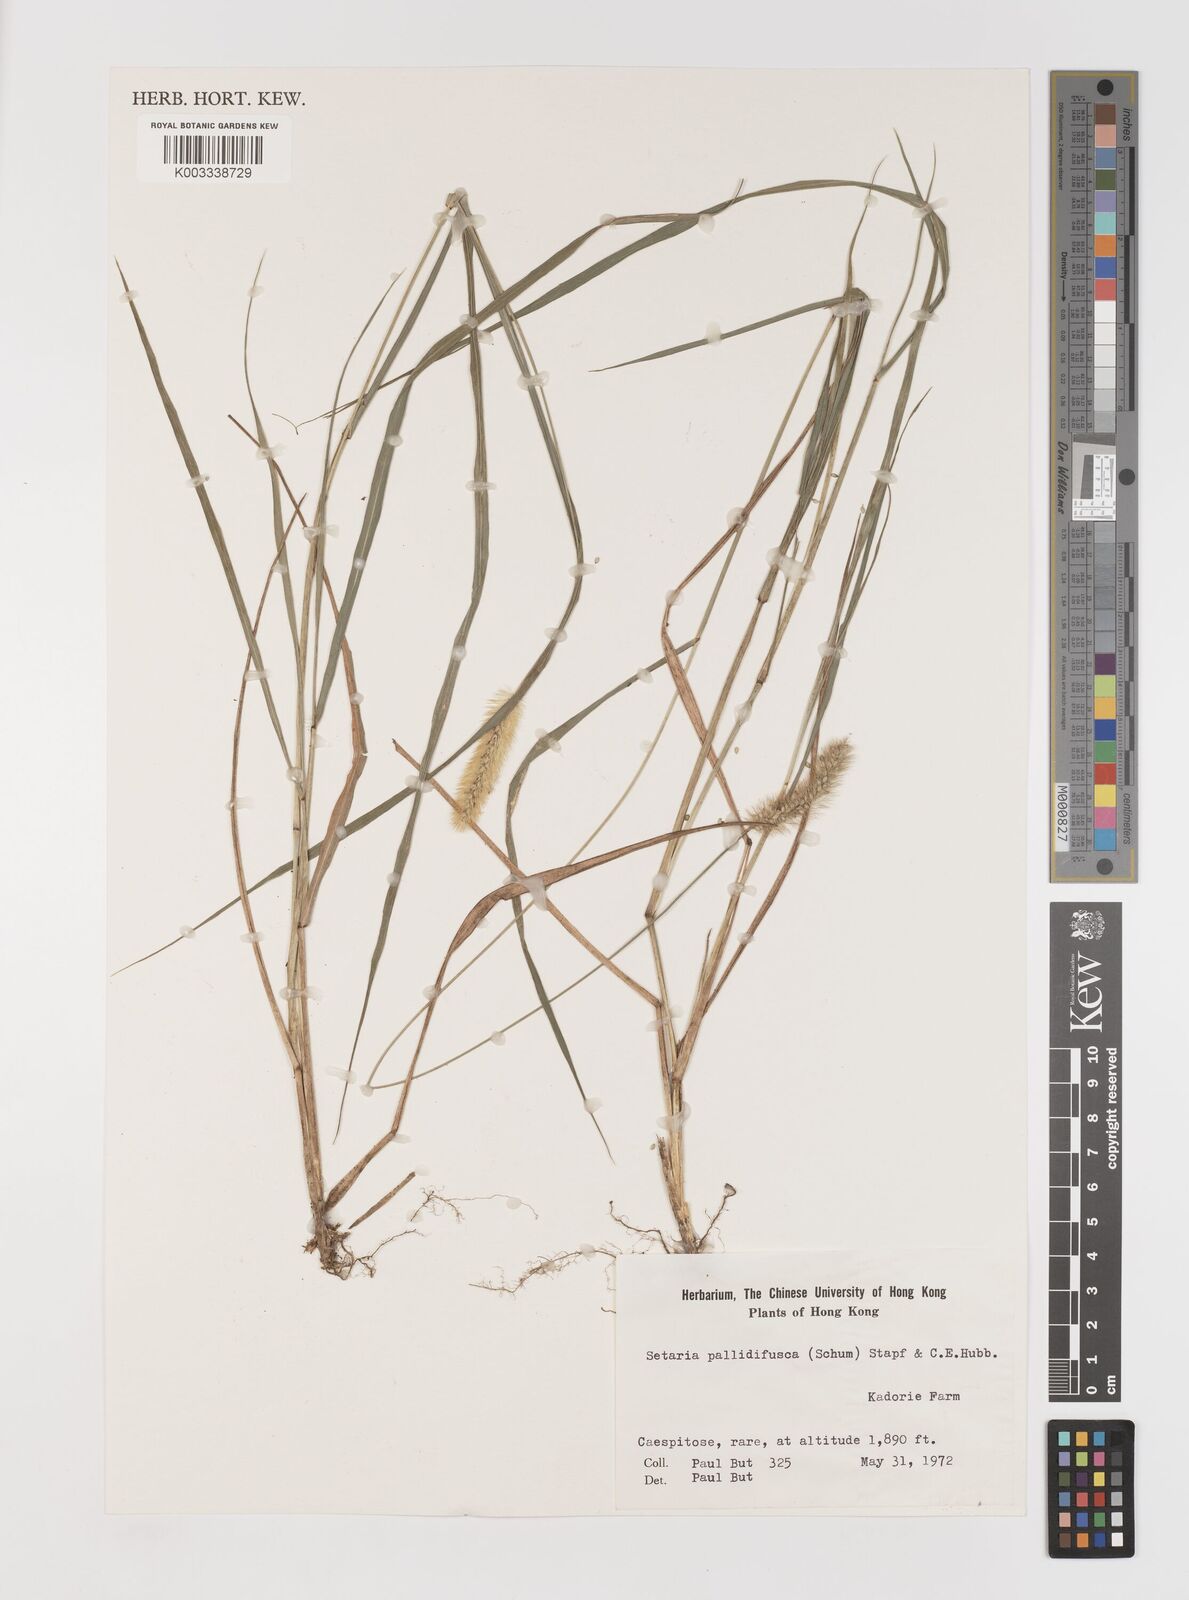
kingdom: Plantae
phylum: Tracheophyta
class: Liliopsida
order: Poales
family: Poaceae
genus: Setaria
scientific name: Setaria parviflora
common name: Knotroot bristle-grass
